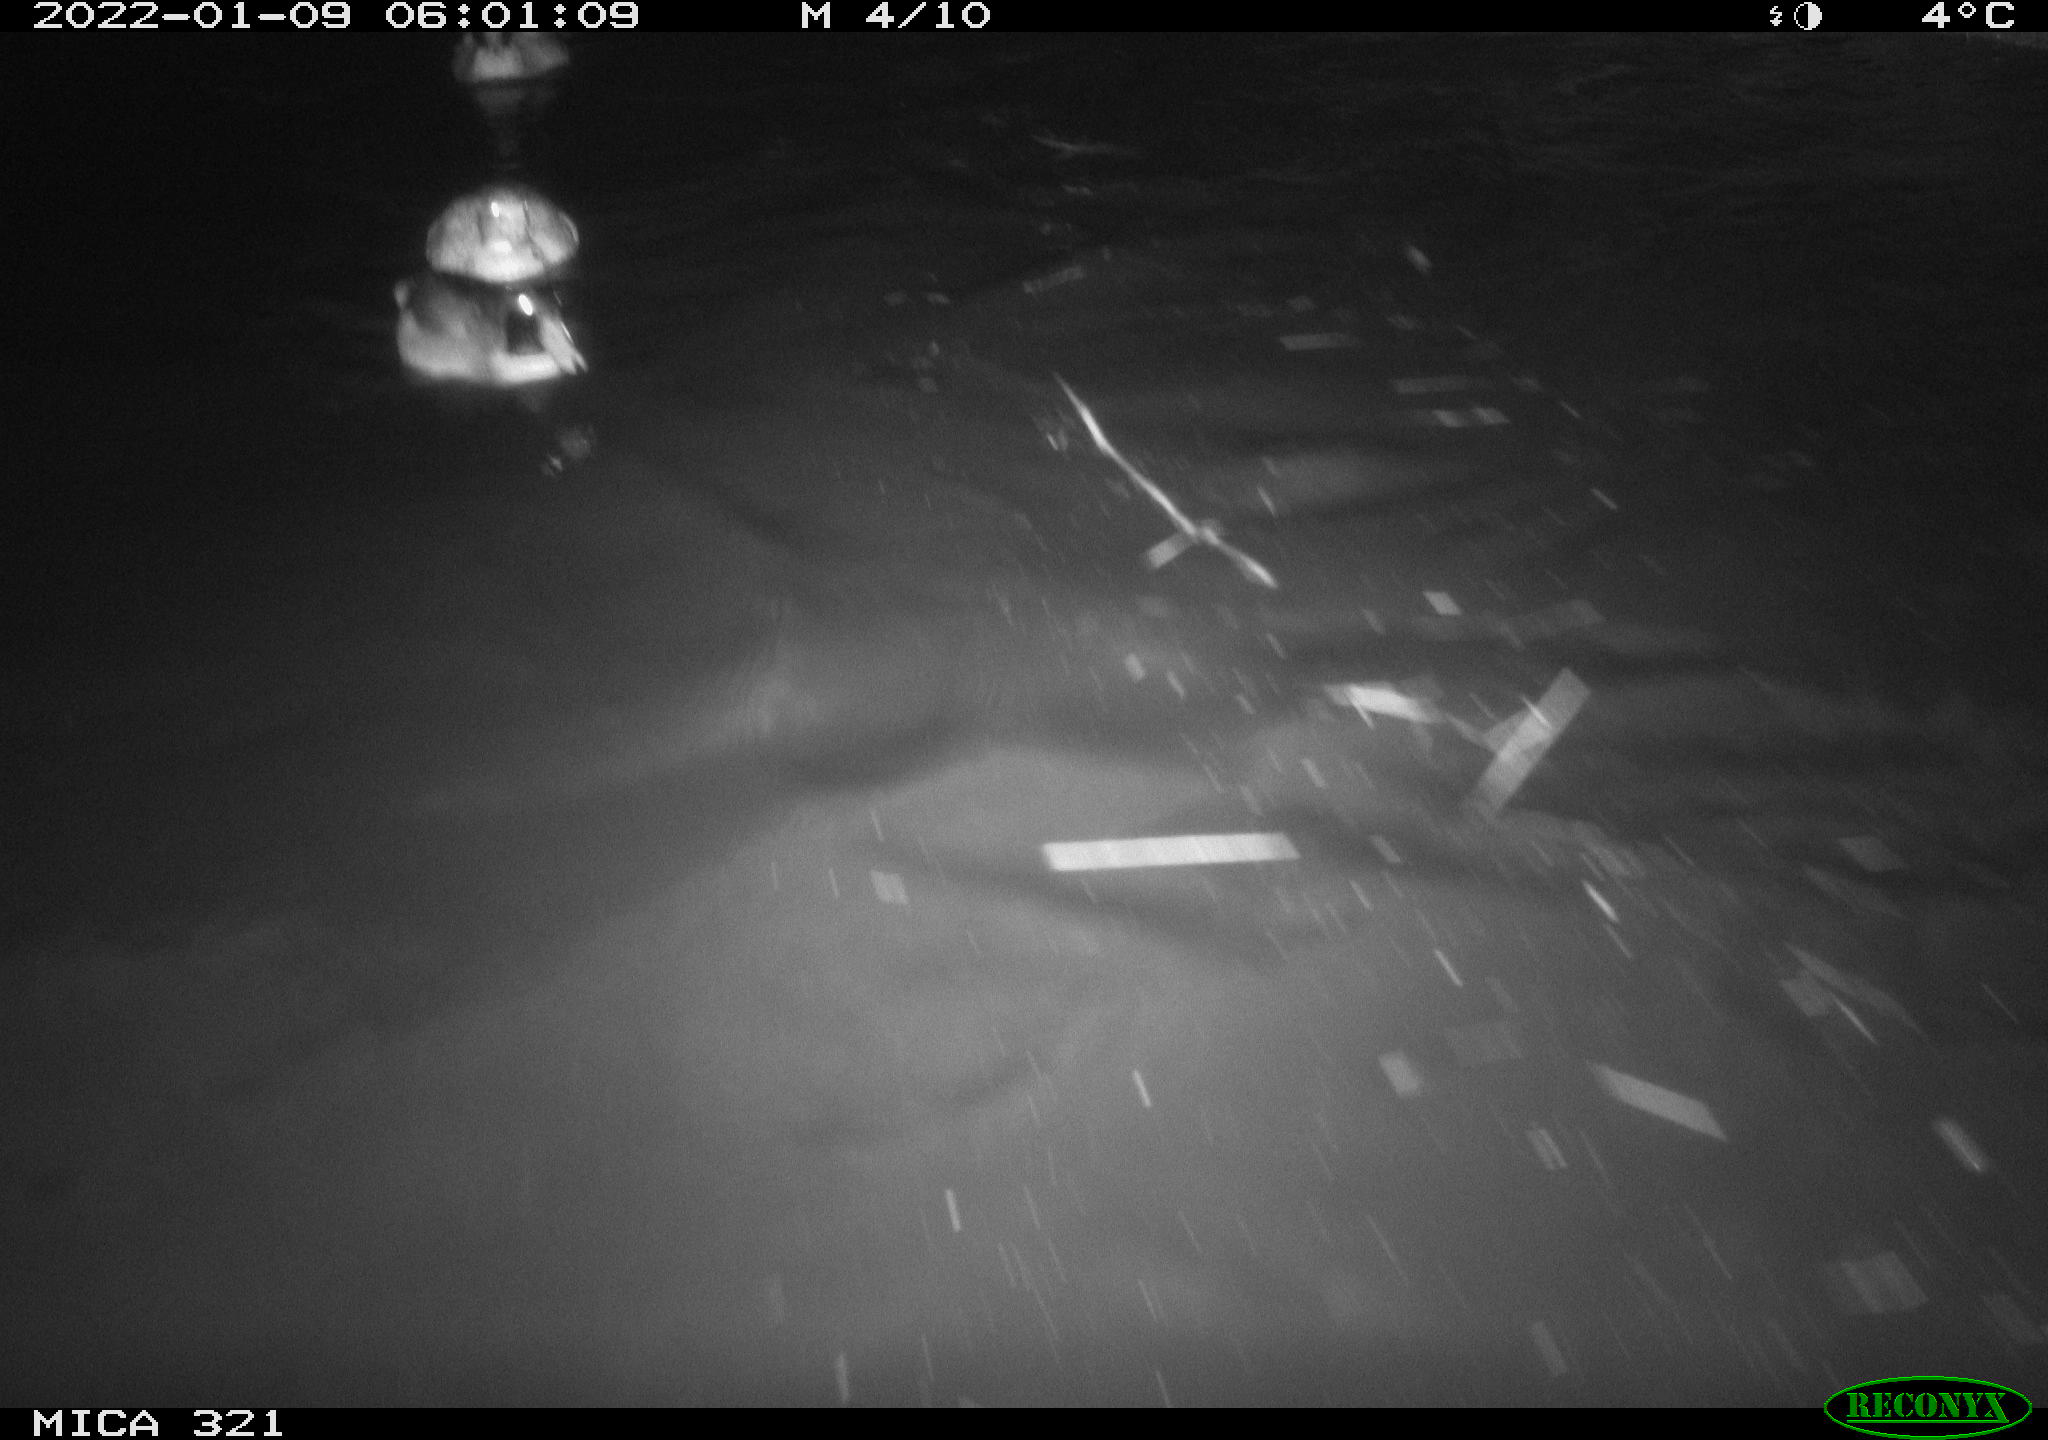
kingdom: Animalia
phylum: Chordata
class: Aves
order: Anseriformes
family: Anatidae
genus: Anas
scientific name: Anas
